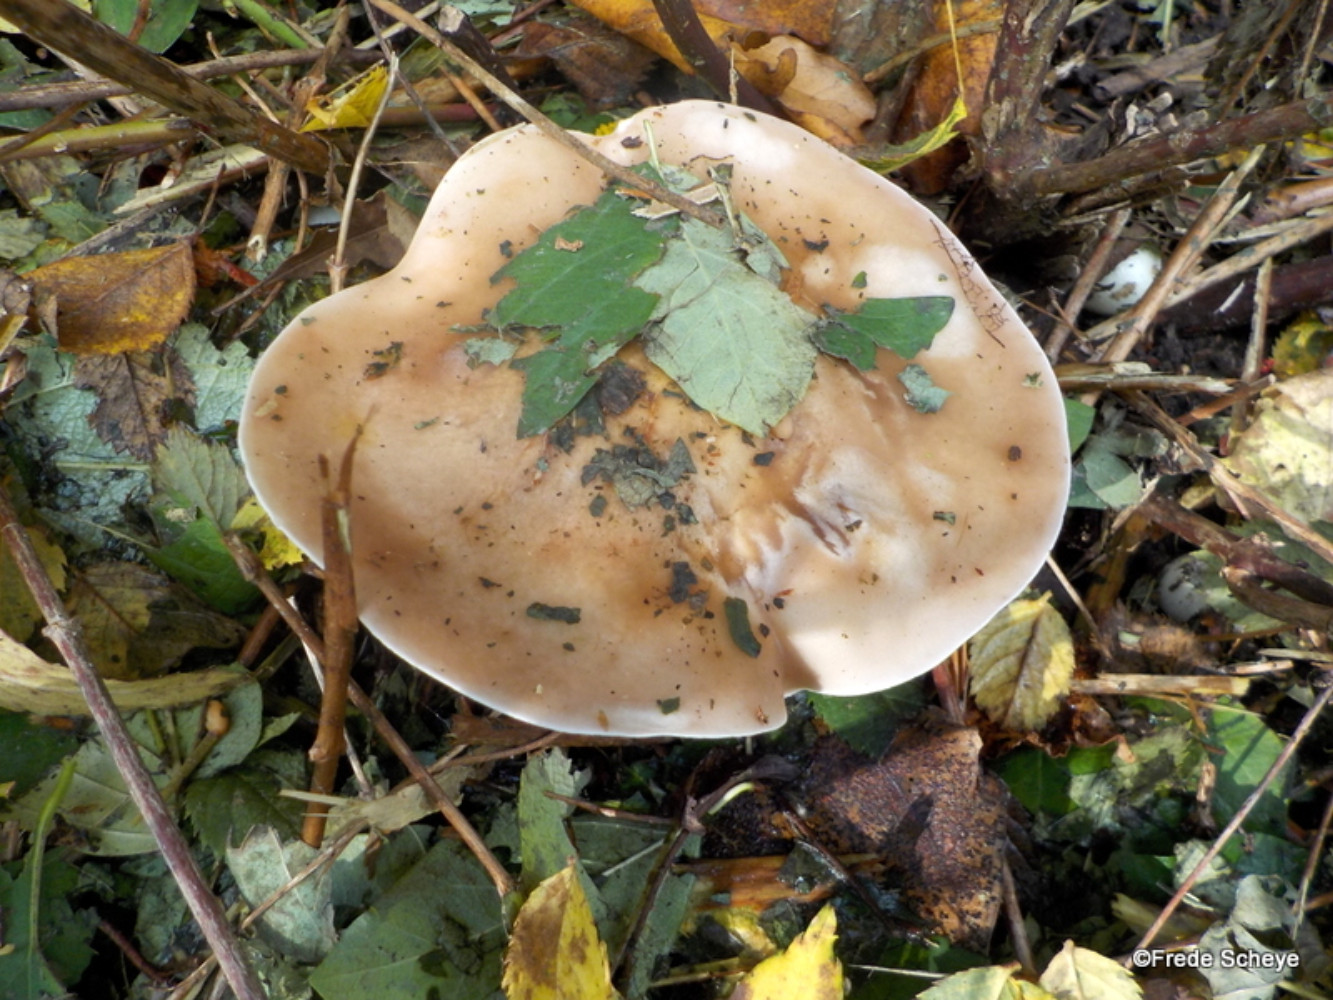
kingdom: Fungi
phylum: Basidiomycota
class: Agaricomycetes
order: Agaricales
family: Tricholomataceae
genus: Lepista
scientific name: Lepista personata
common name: bleg hekseringshat
